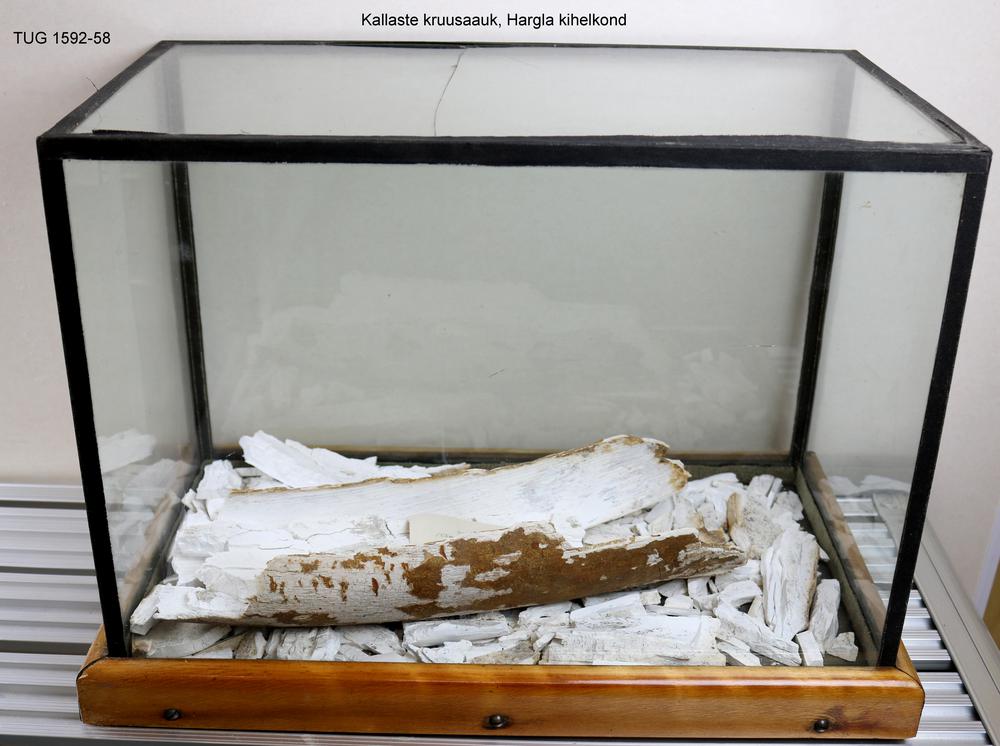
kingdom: Animalia
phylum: Chordata
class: Mammalia
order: Proboscidea
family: Elephantidae
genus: Mammuthus
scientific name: Mammuthus primigenius
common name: Wooly mammoth
